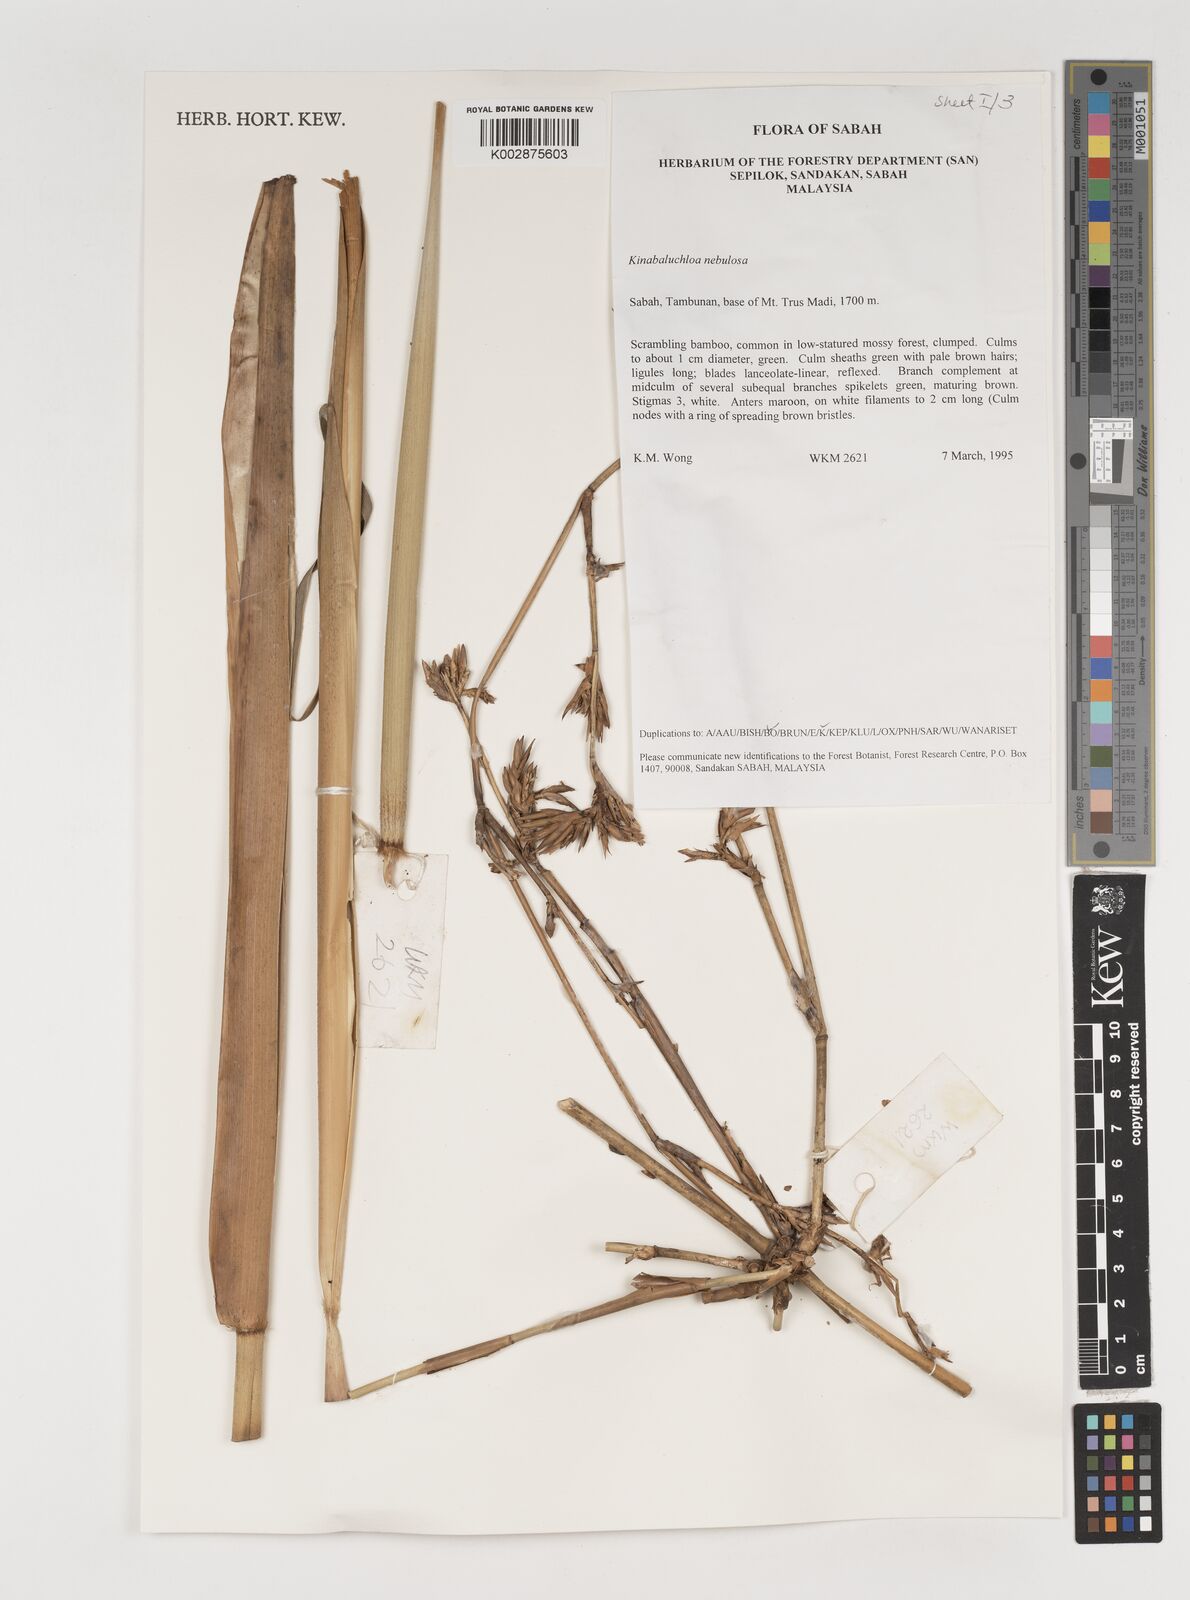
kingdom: Plantae
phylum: Tracheophyta
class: Liliopsida
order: Poales
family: Poaceae
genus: Kinabaluchloa
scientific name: Kinabaluchloa
